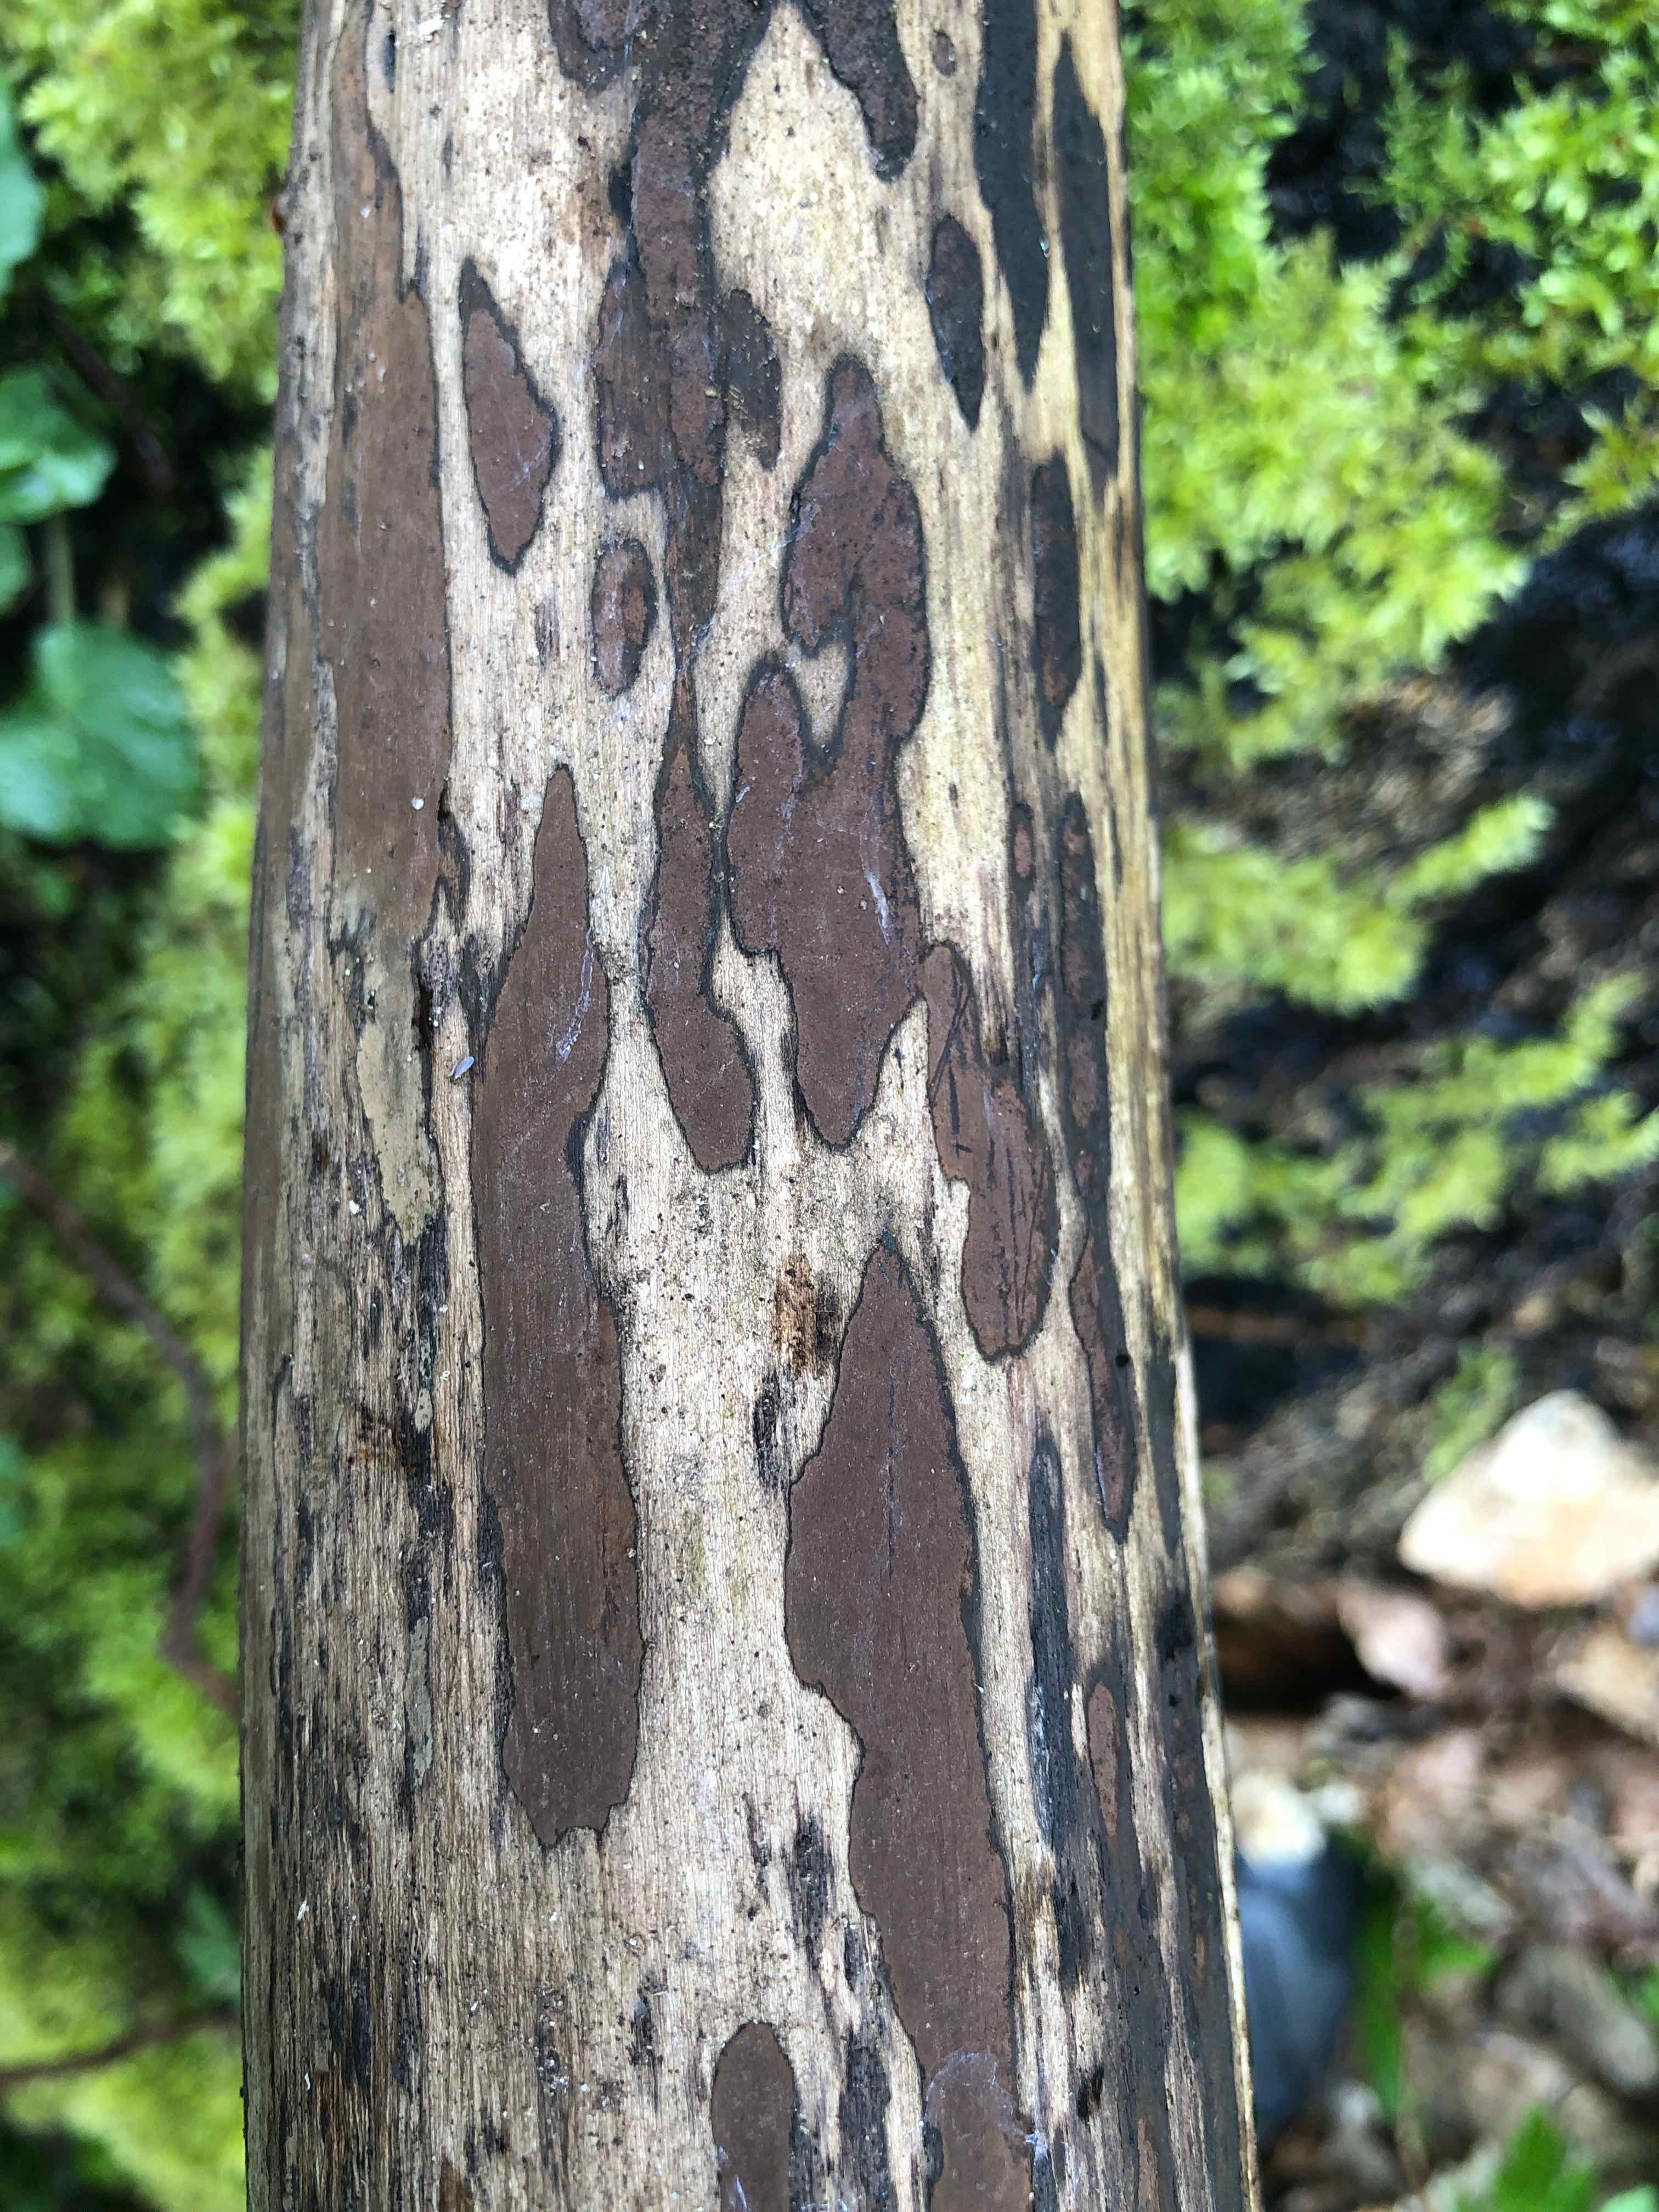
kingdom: Fungi
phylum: Ascomycota
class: Sordariomycetes
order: Xylariales
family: Hypoxylaceae
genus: Hypoxylon
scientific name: Hypoxylon petriniae
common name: nedsænket kulbær
